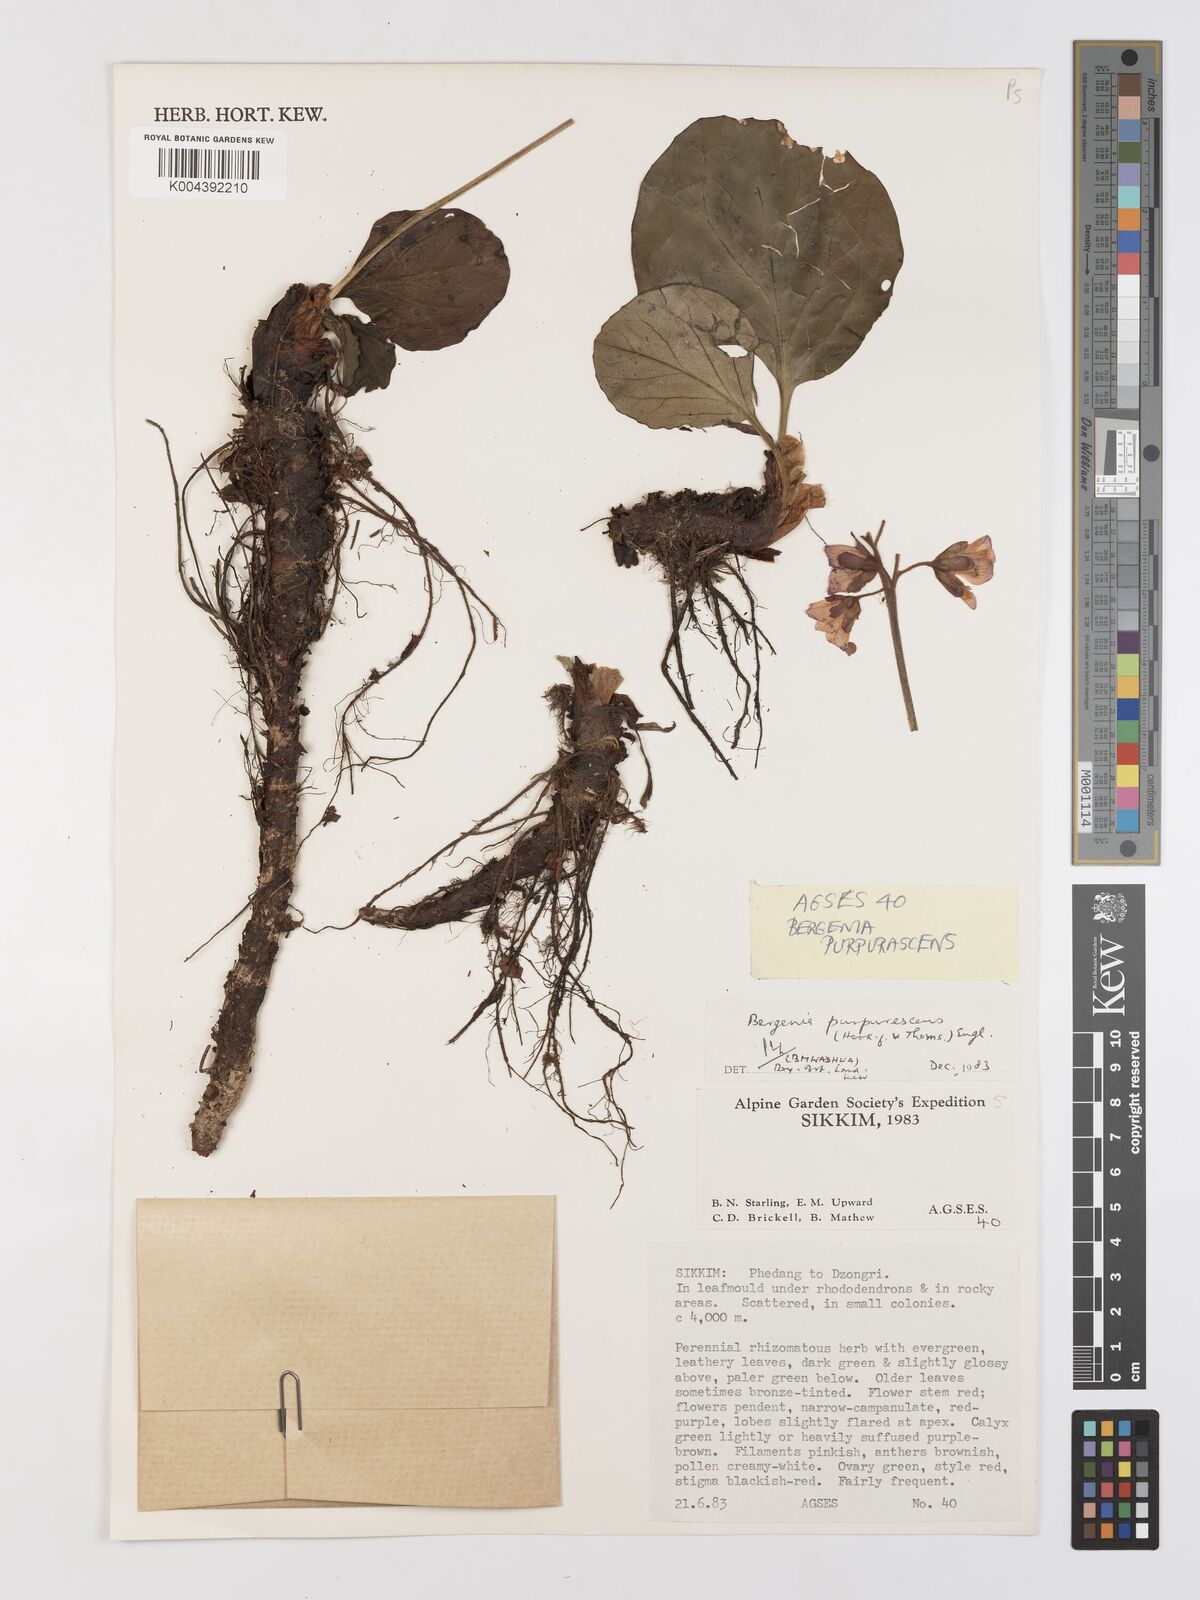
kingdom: Plantae
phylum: Tracheophyta
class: Magnoliopsida
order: Saxifragales
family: Saxifragaceae
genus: Bergenia
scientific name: Bergenia purpurascens
